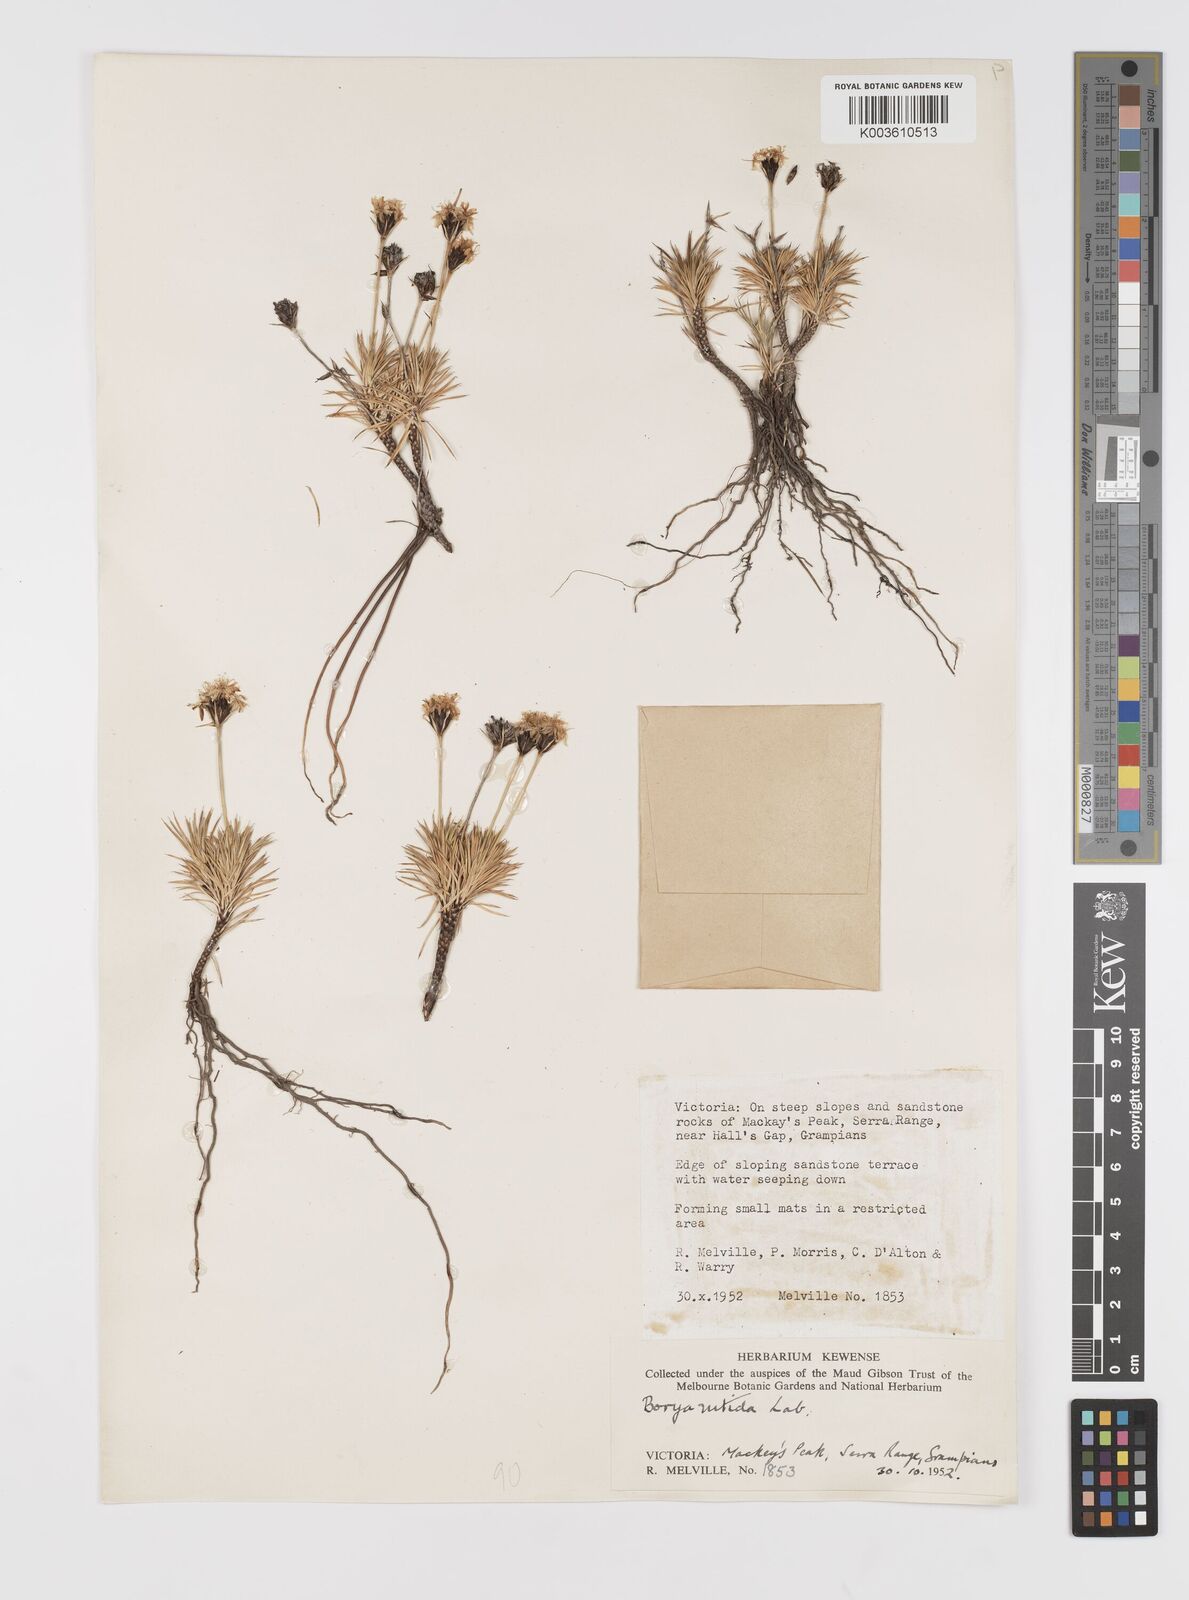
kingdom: Plantae
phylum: Tracheophyta
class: Liliopsida
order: Asparagales
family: Boryaceae
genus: Borya
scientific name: Borya nitida
